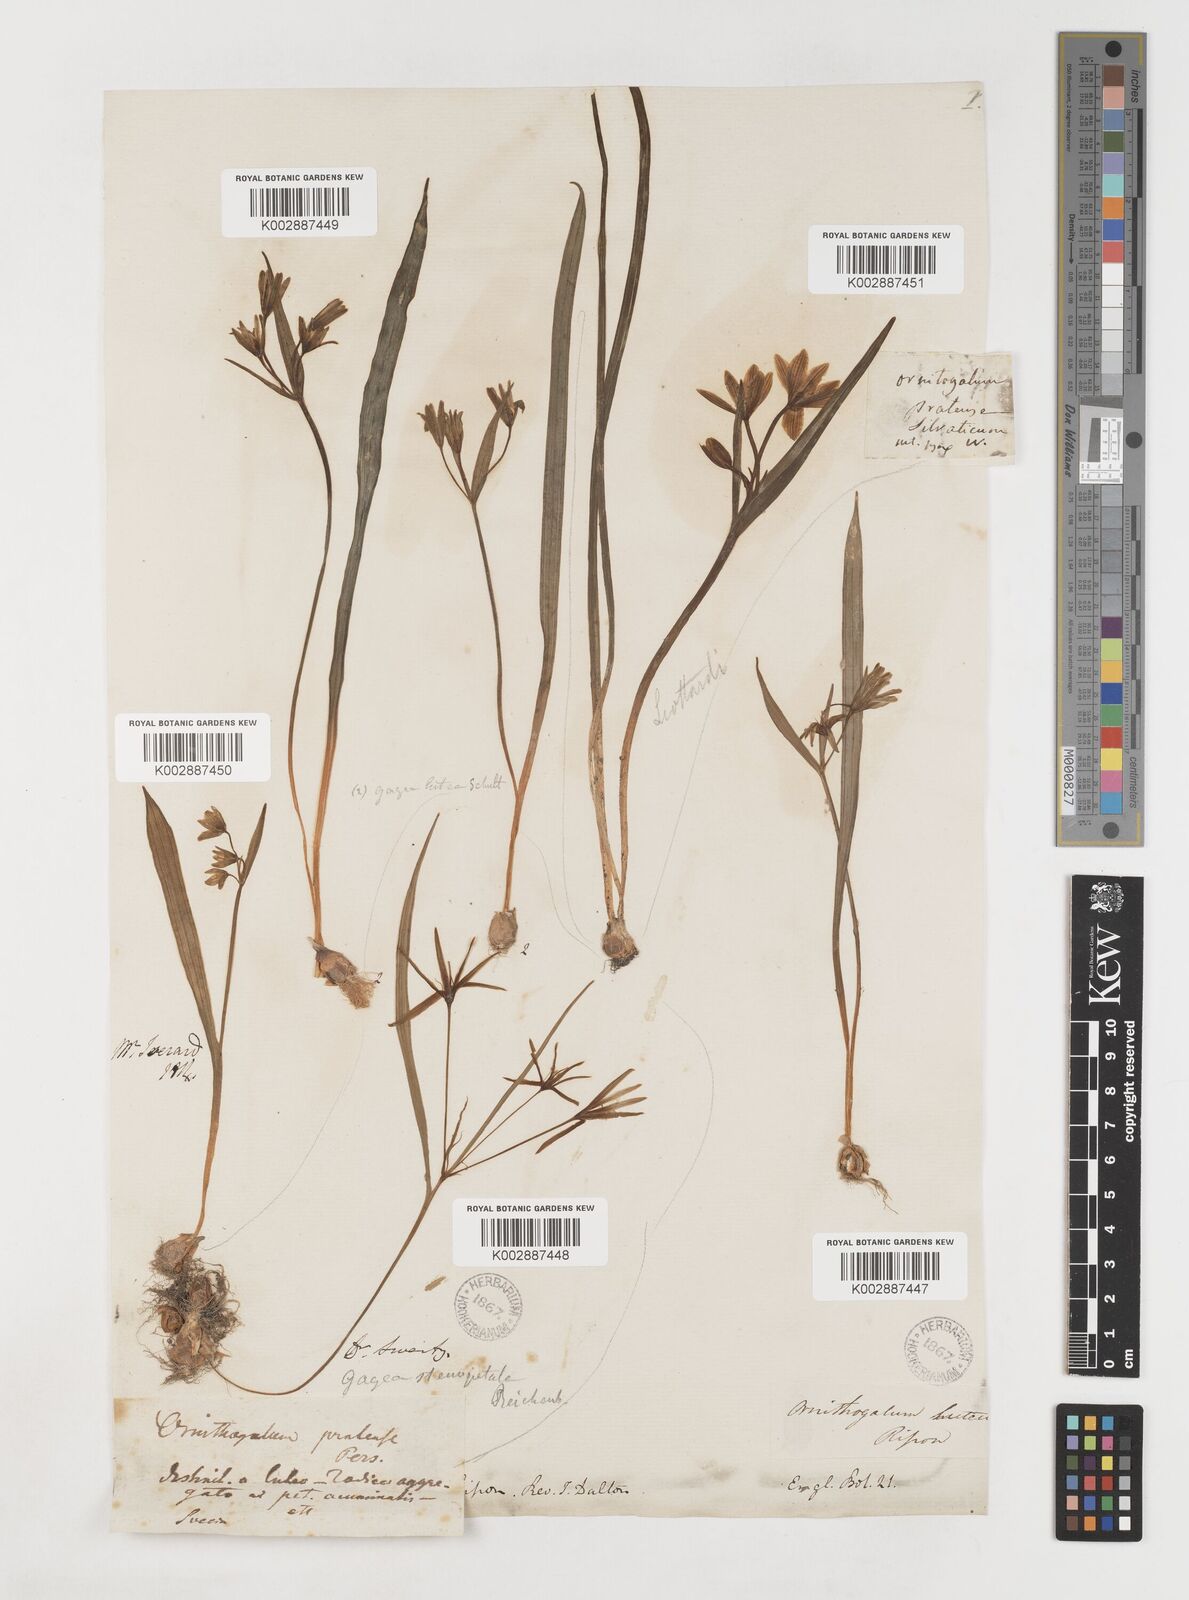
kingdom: Plantae
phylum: Tracheophyta
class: Liliopsida
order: Liliales
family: Liliaceae
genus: Gagea
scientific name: Gagea lutea
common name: Yellow star-of-bethlehem
